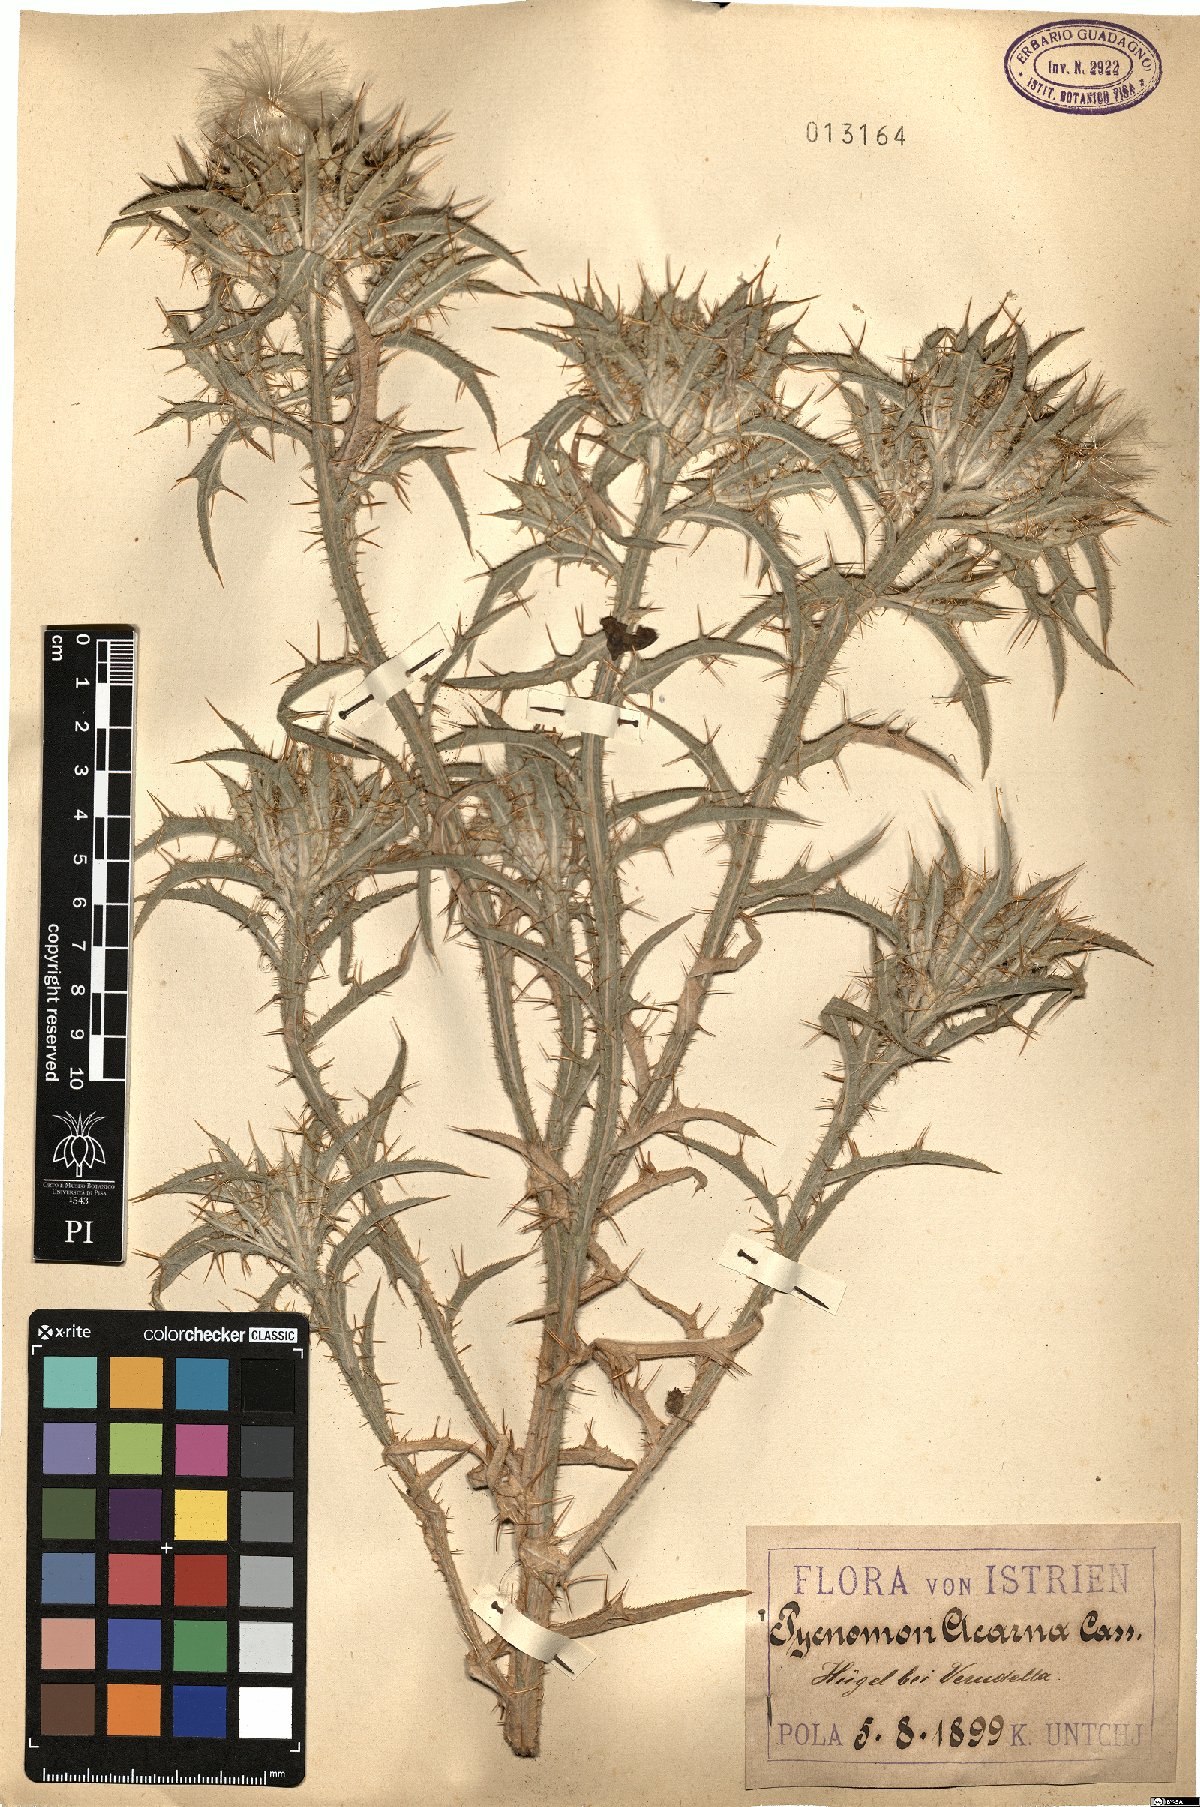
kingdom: Plantae
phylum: Tracheophyta
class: Magnoliopsida
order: Asterales
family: Asteraceae
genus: Picnomon
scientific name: Picnomon acarna
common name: Soldier thistle
